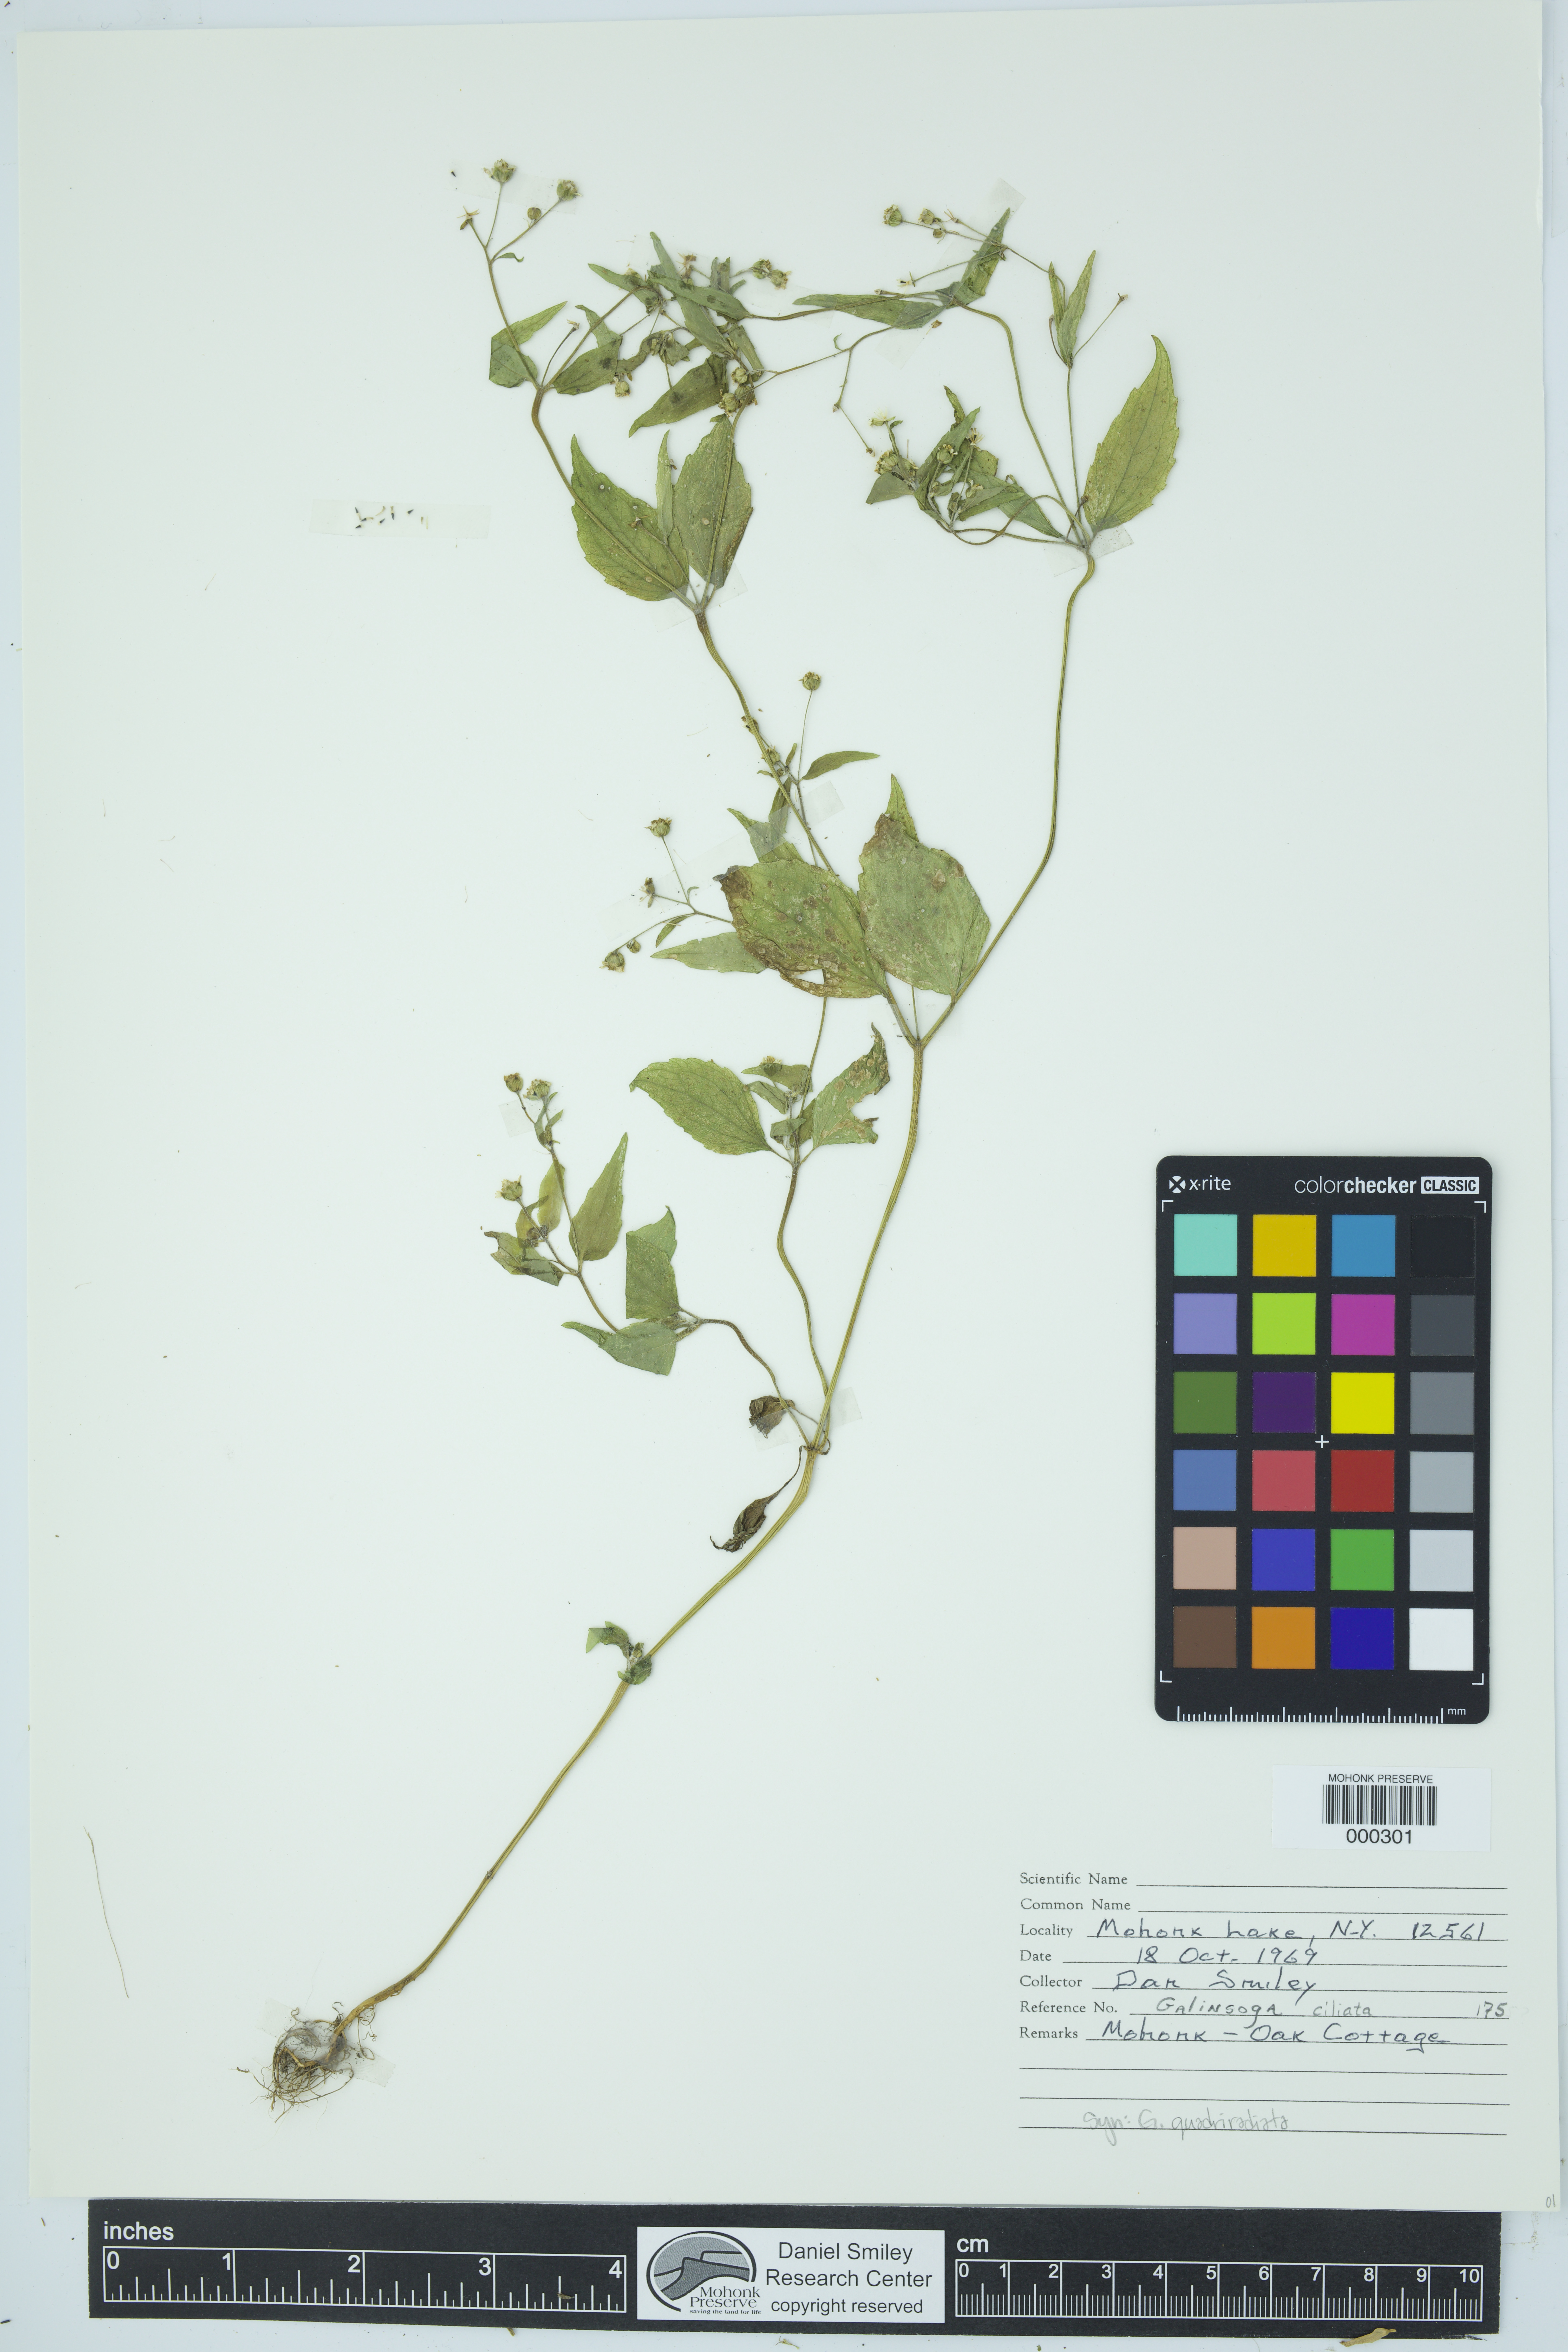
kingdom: Plantae
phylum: Tracheophyta
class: Magnoliopsida
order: Asterales
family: Asteraceae
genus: Galinsoga
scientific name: Galinsoga quadriradiata
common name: Shaggy soldier
